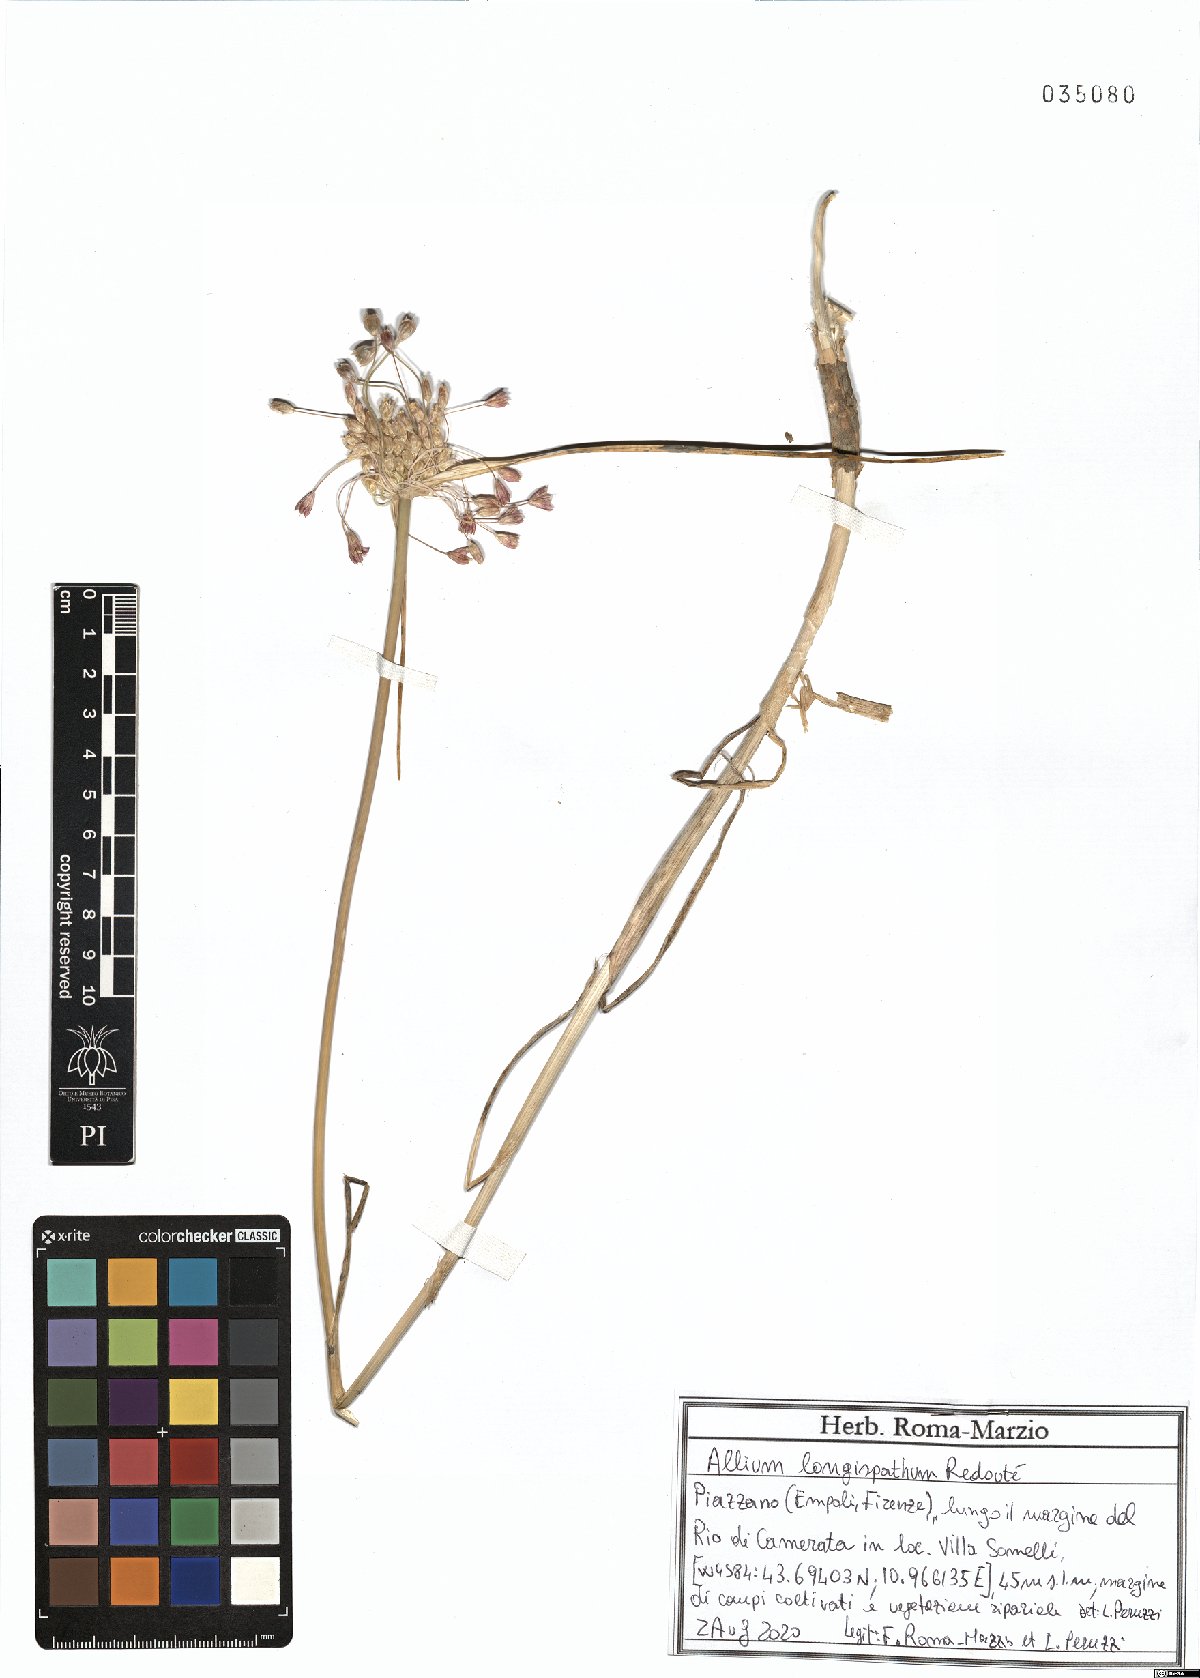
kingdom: Plantae
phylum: Tracheophyta
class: Liliopsida
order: Asparagales
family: Amaryllidaceae
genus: Allium
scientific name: Allium longispathum
